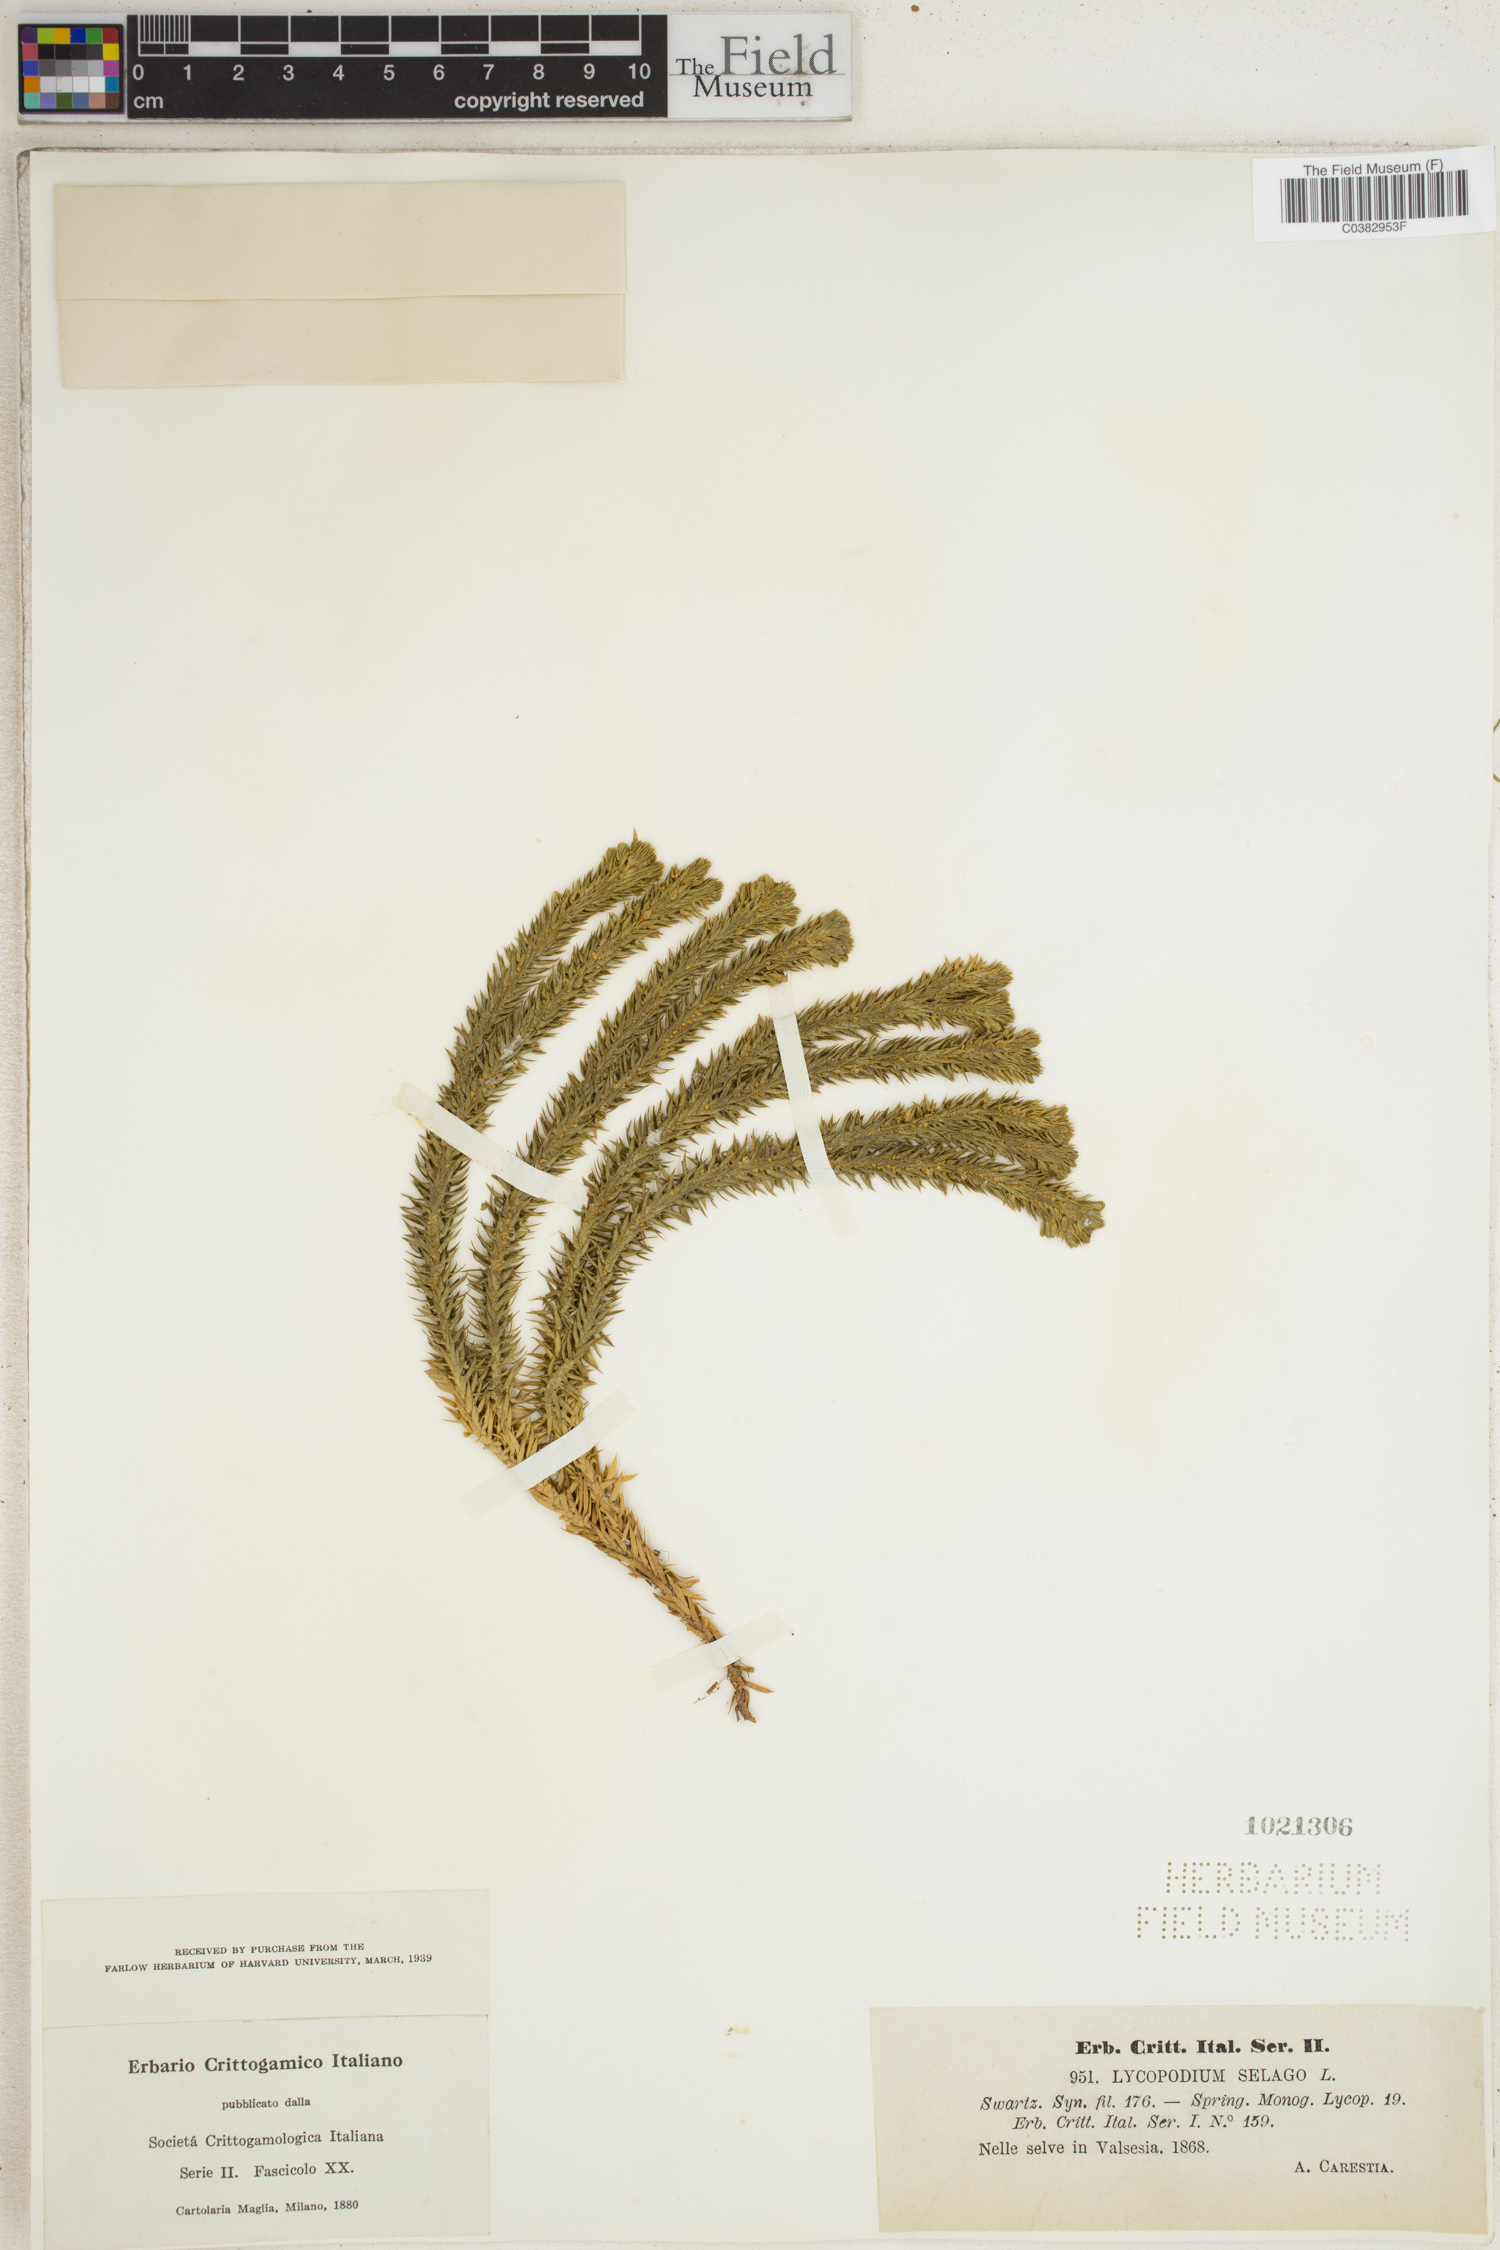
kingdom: Plantae
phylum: Tracheophyta
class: Lycopodiopsida
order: Lycopodiales
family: Lycopodiaceae
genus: Huperzia
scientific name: Huperzia selago
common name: Northern firmoss
